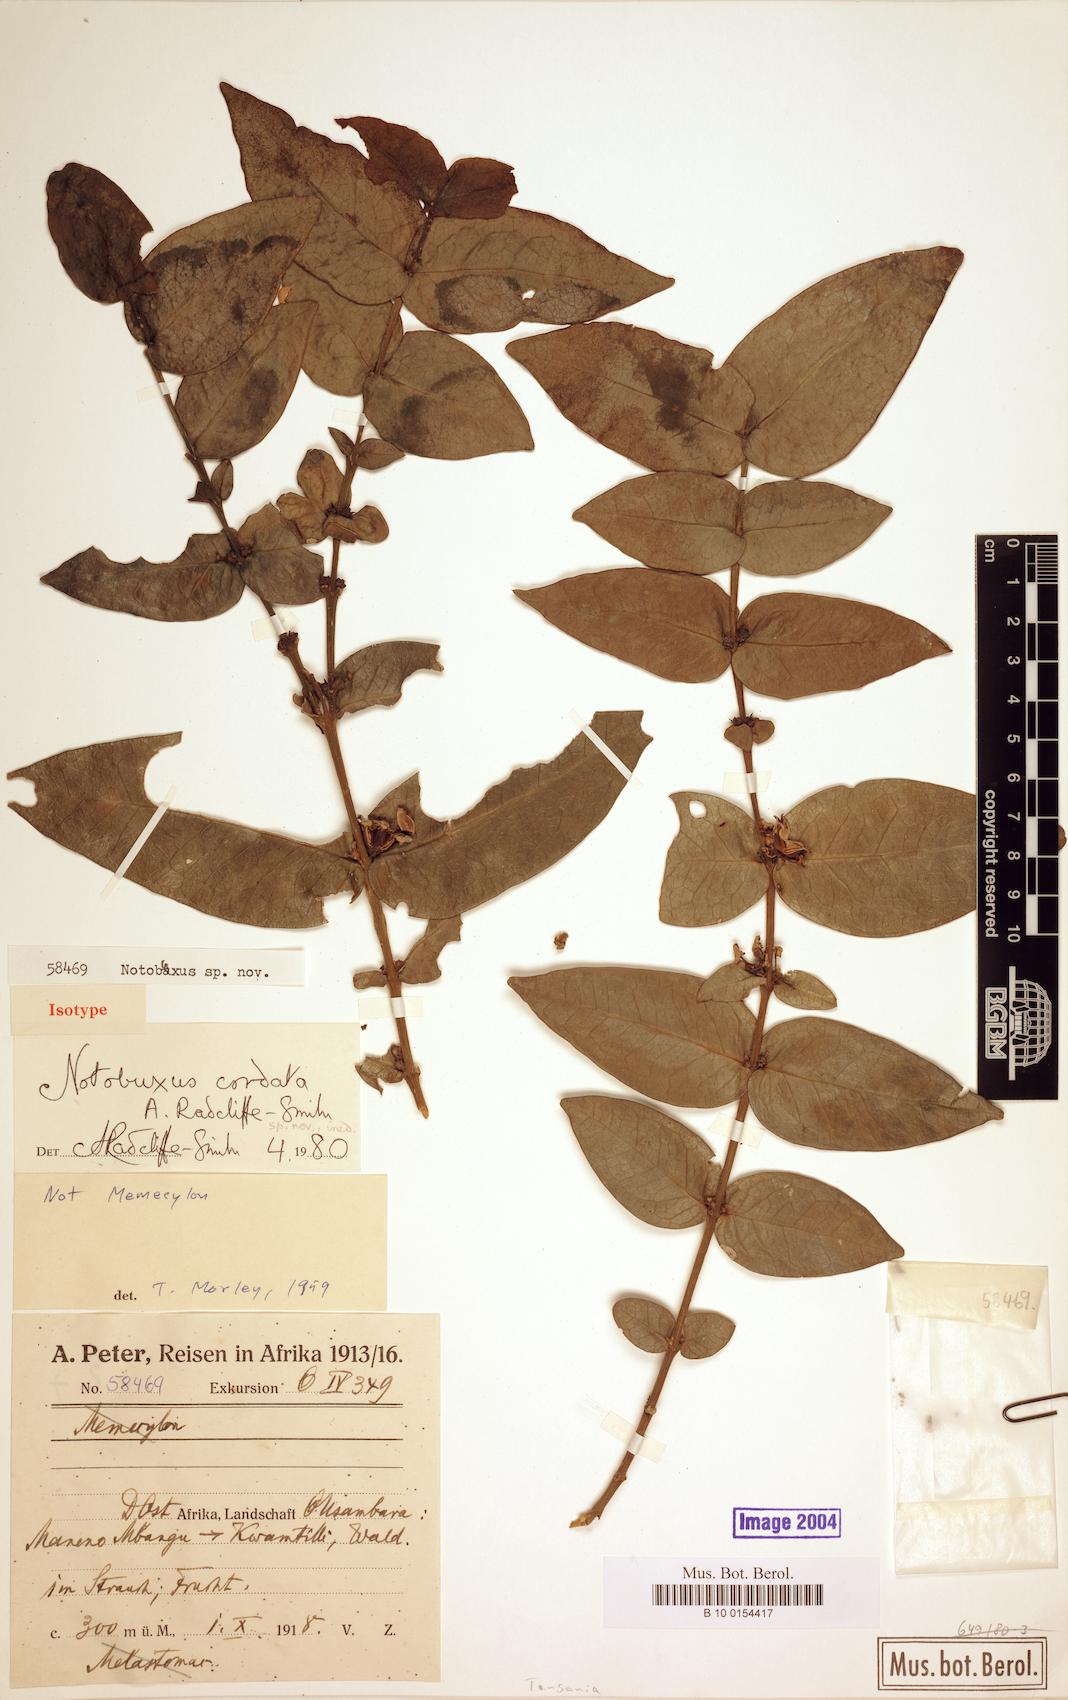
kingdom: Plantae
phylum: Tracheophyta
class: Magnoliopsida
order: Buxales
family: Buxaceae
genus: Buxus
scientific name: Buxus cordata
